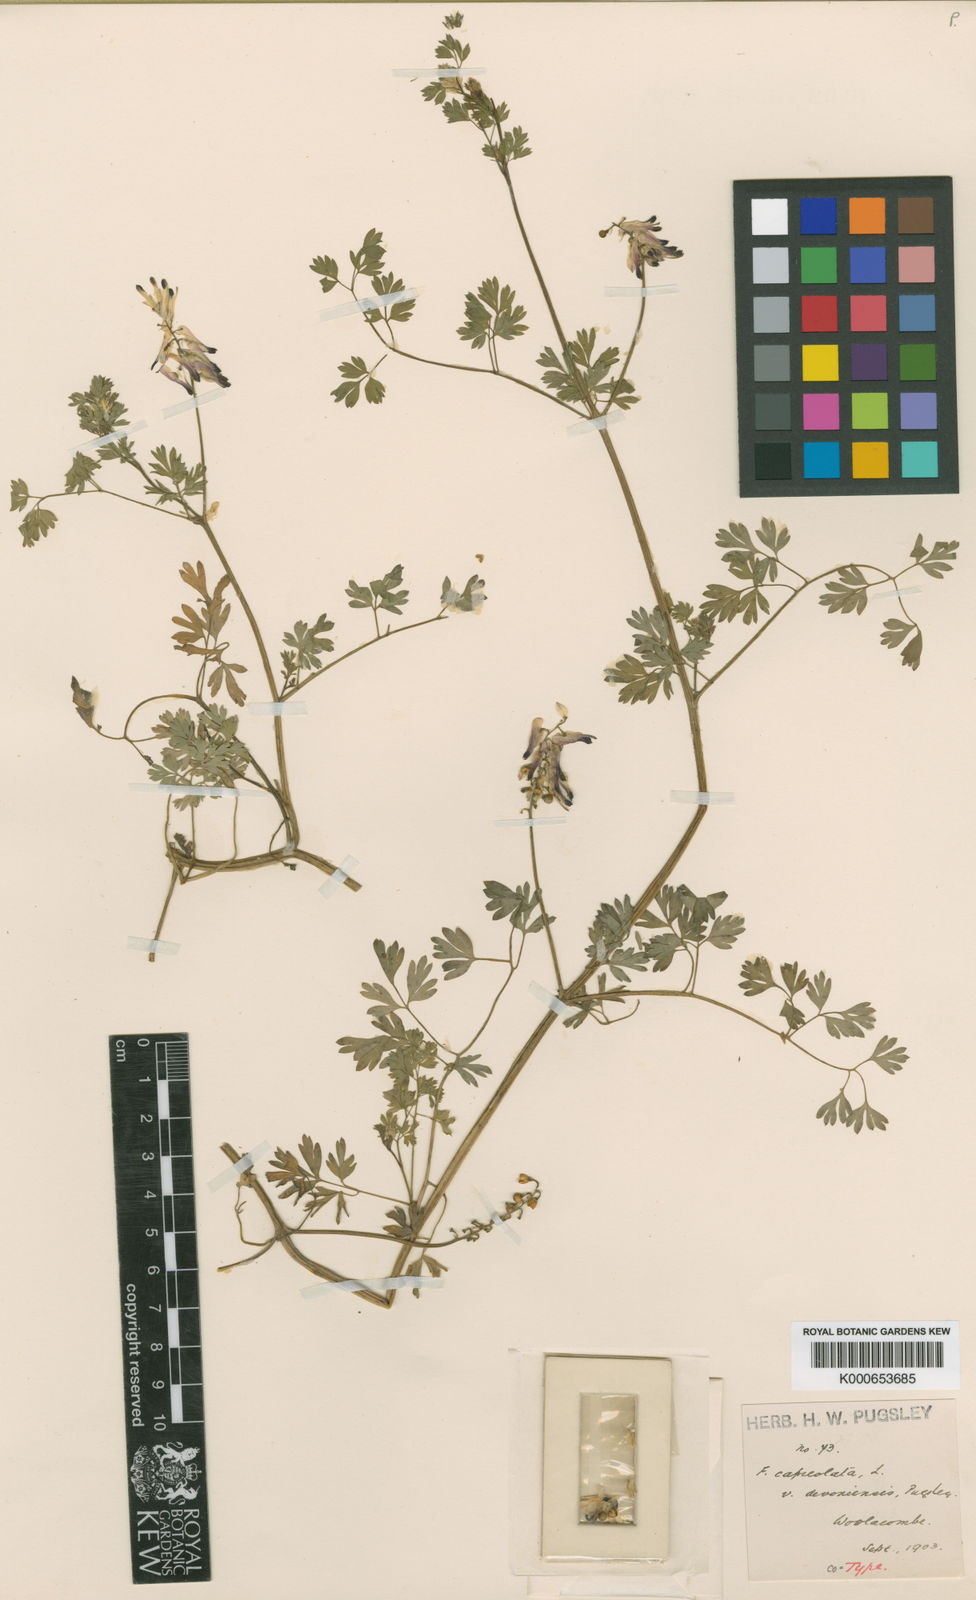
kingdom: Plantae
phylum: Tracheophyta
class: Magnoliopsida
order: Ranunculales
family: Papaveraceae
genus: Fumaria
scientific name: Fumaria capreolata
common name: White ramping-fumitory
